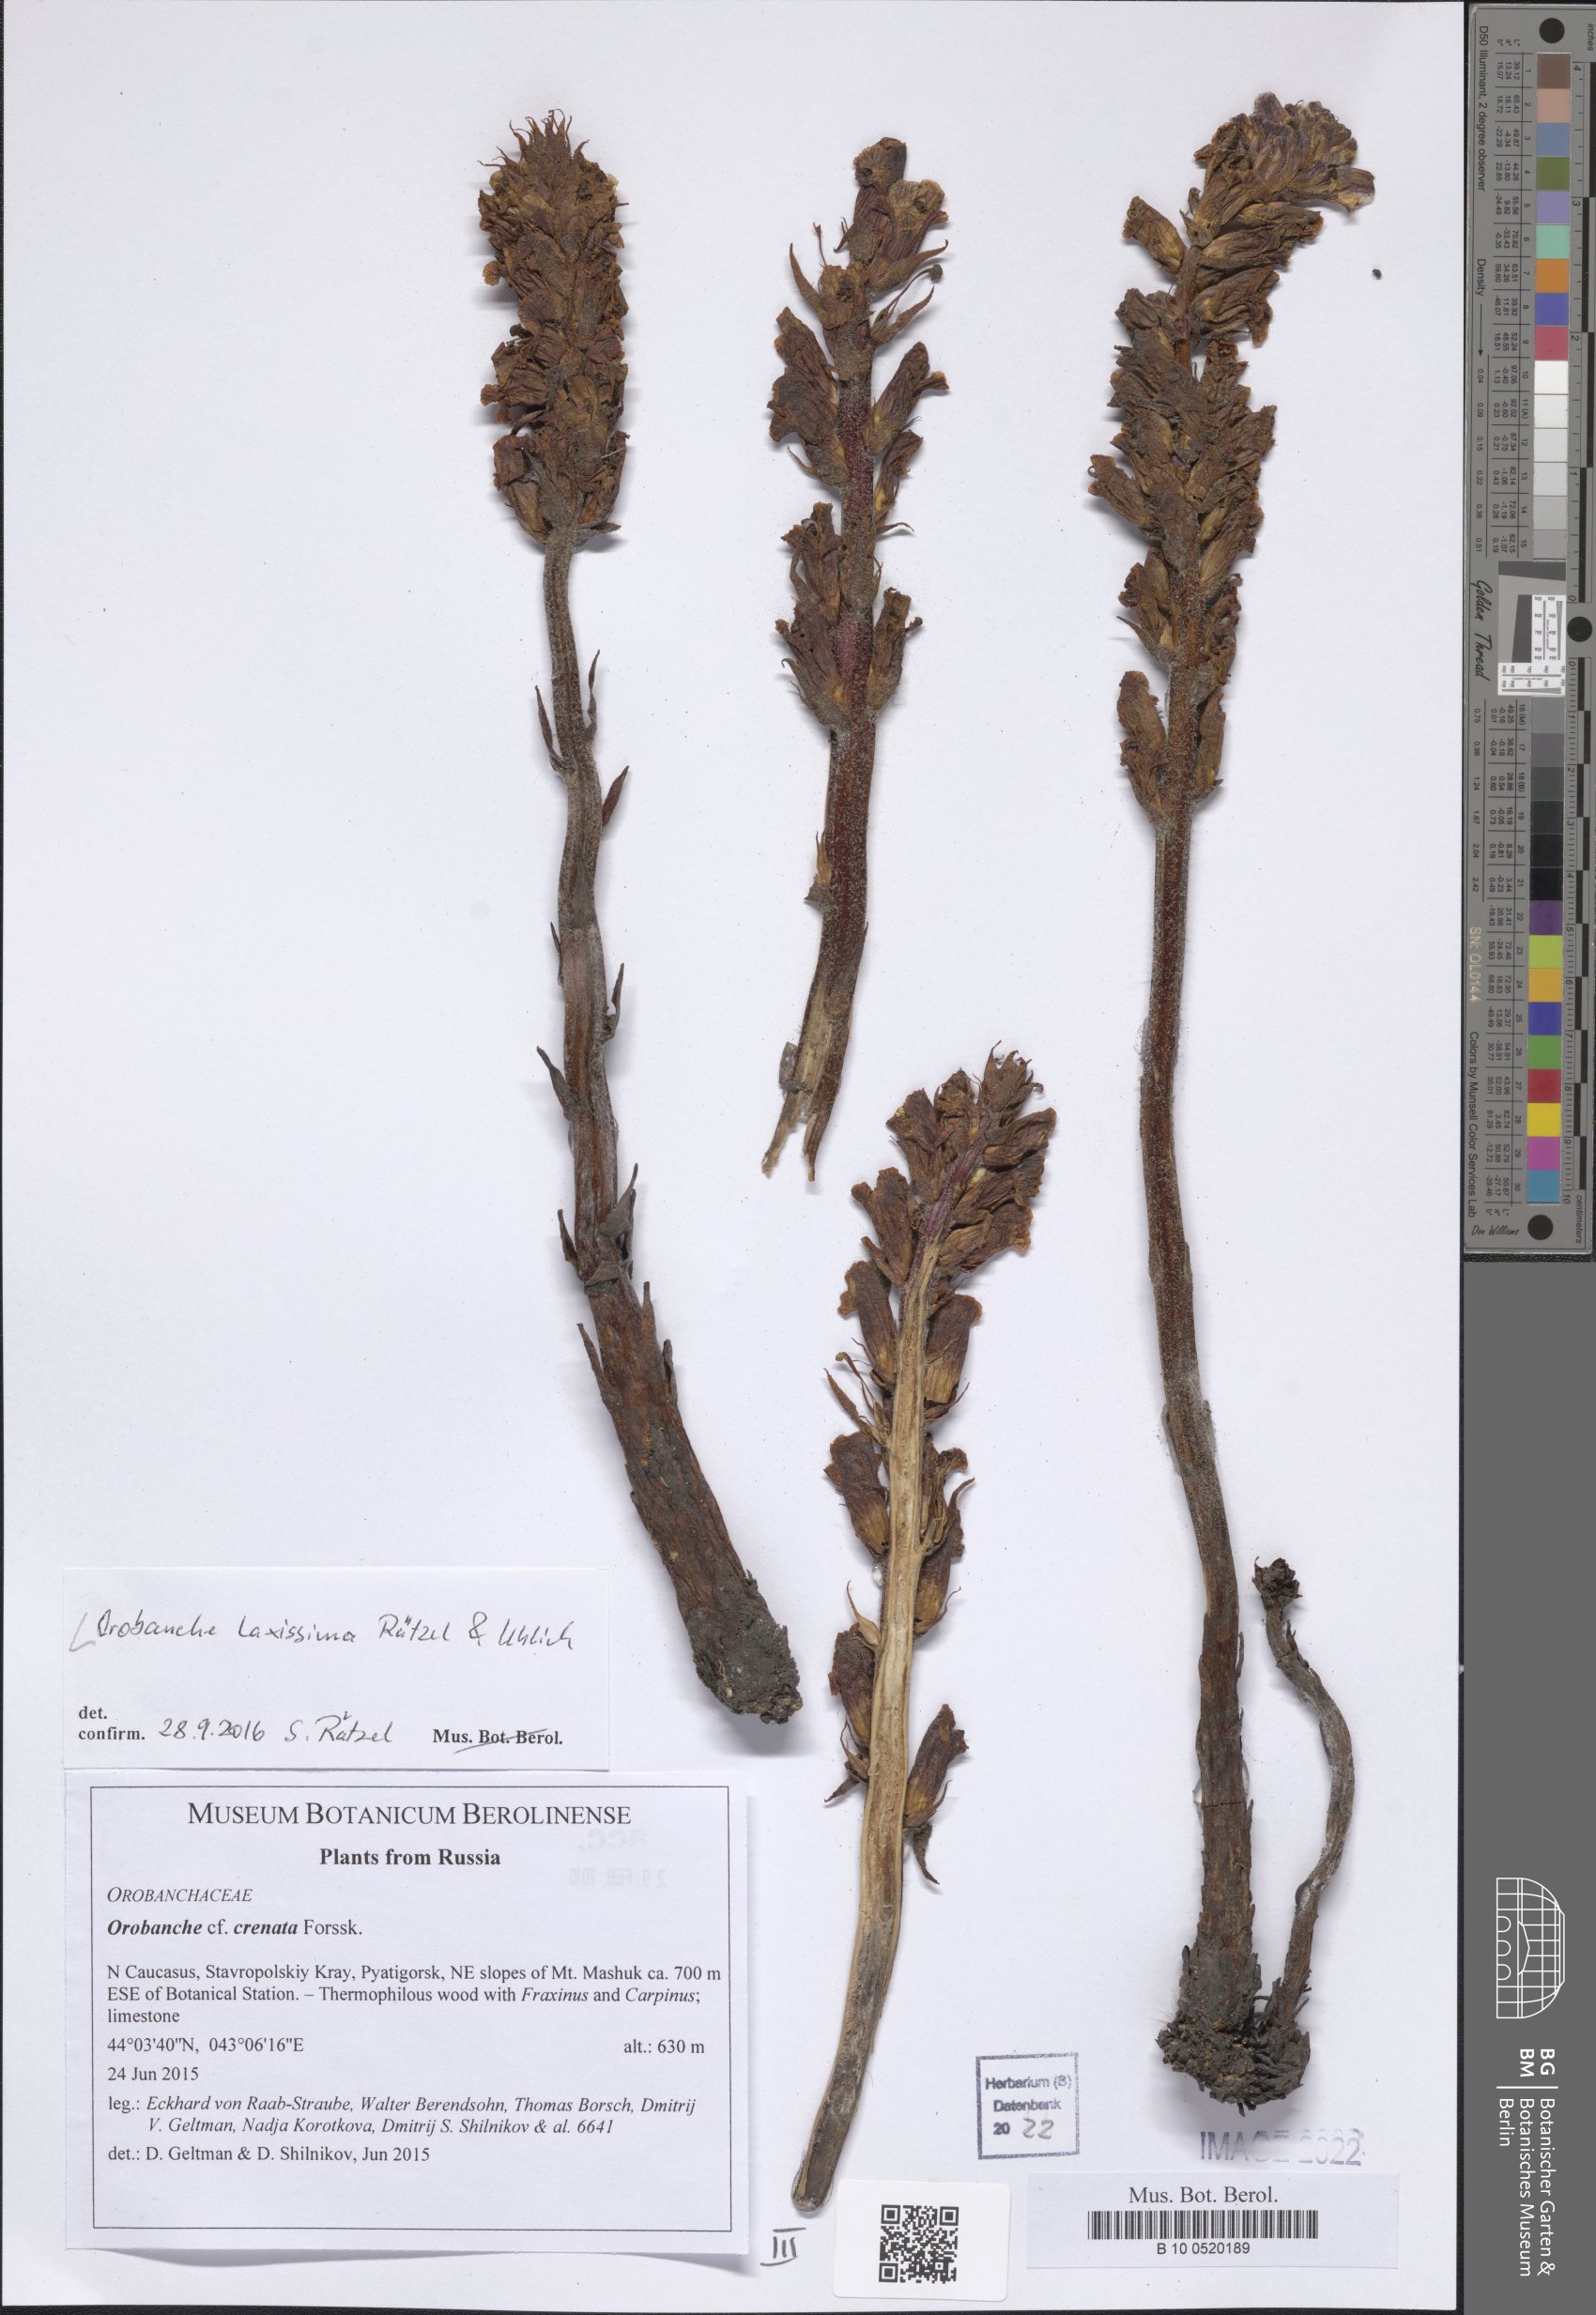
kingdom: Plantae
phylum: Tracheophyta
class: Magnoliopsida
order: Lamiales
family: Orobanchaceae
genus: Orobanche
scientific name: Orobanche laxissima
